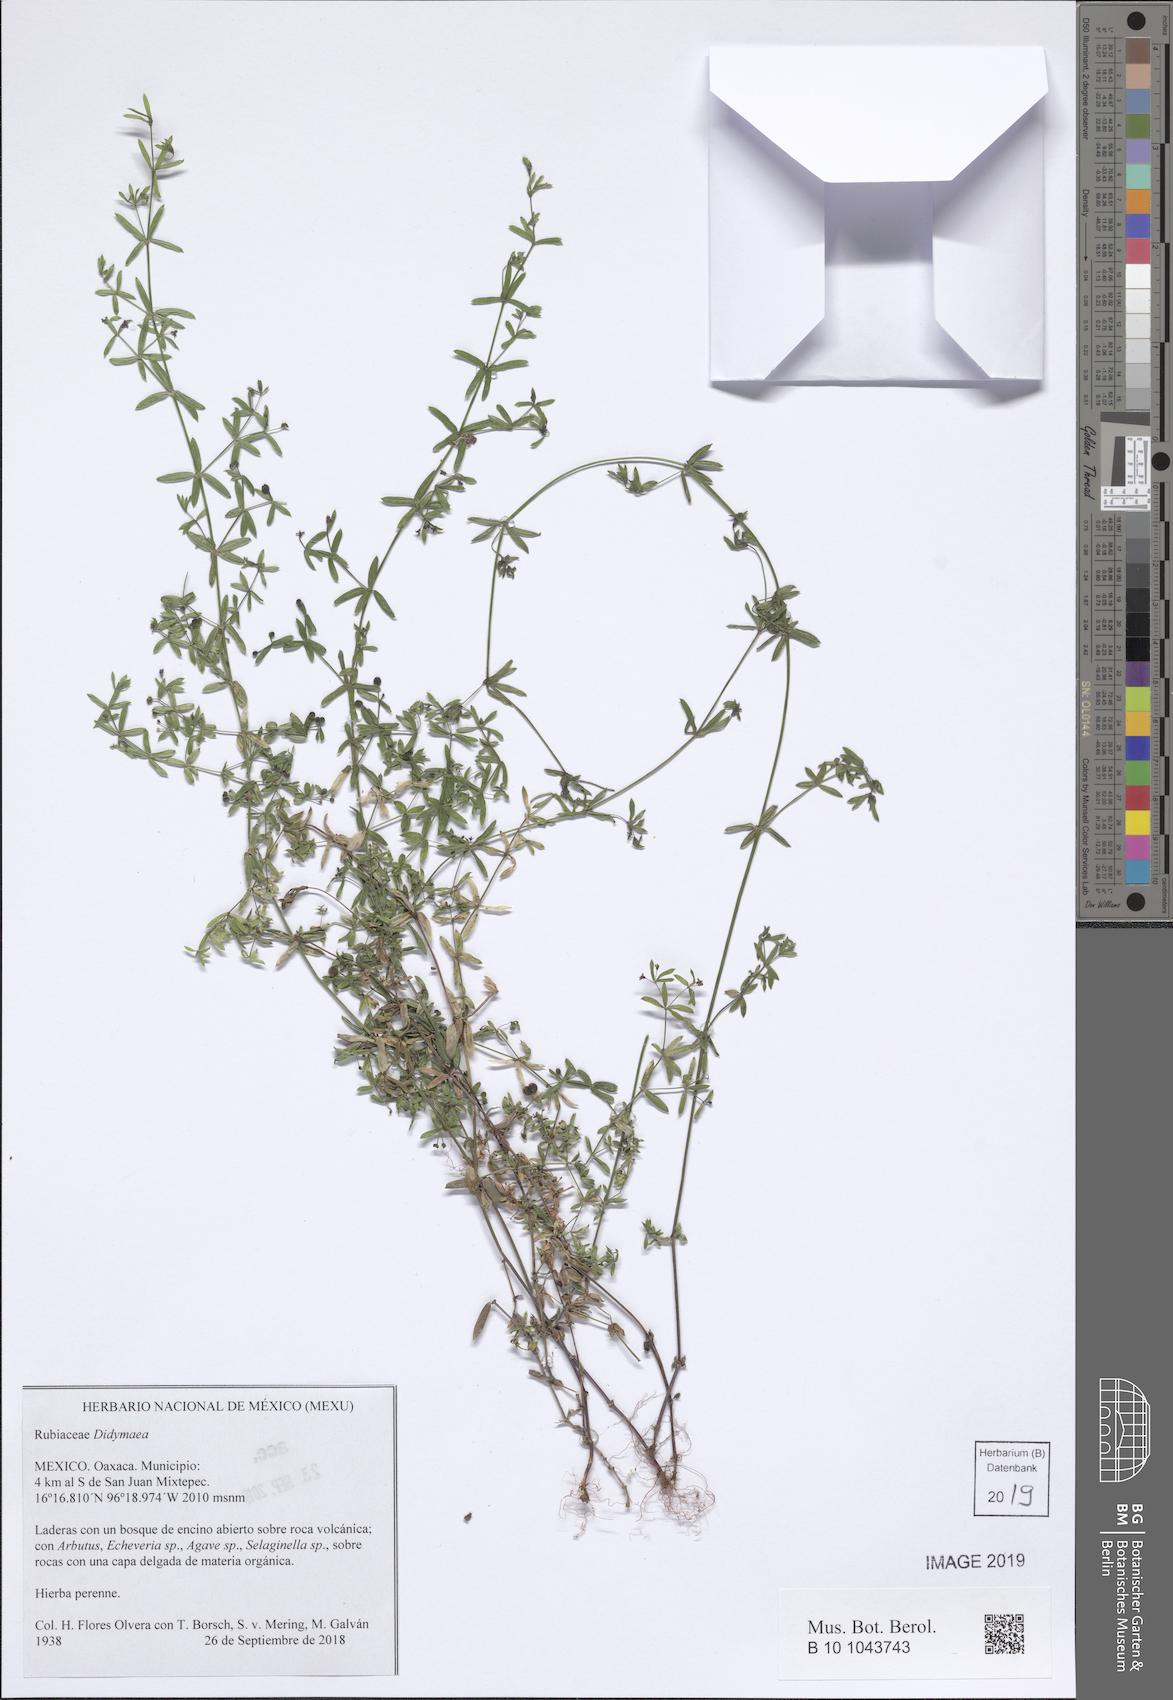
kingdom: Plantae
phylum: Tracheophyta
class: Magnoliopsida
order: Gentianales
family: Rubiaceae
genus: Didymaea
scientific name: Didymaea
